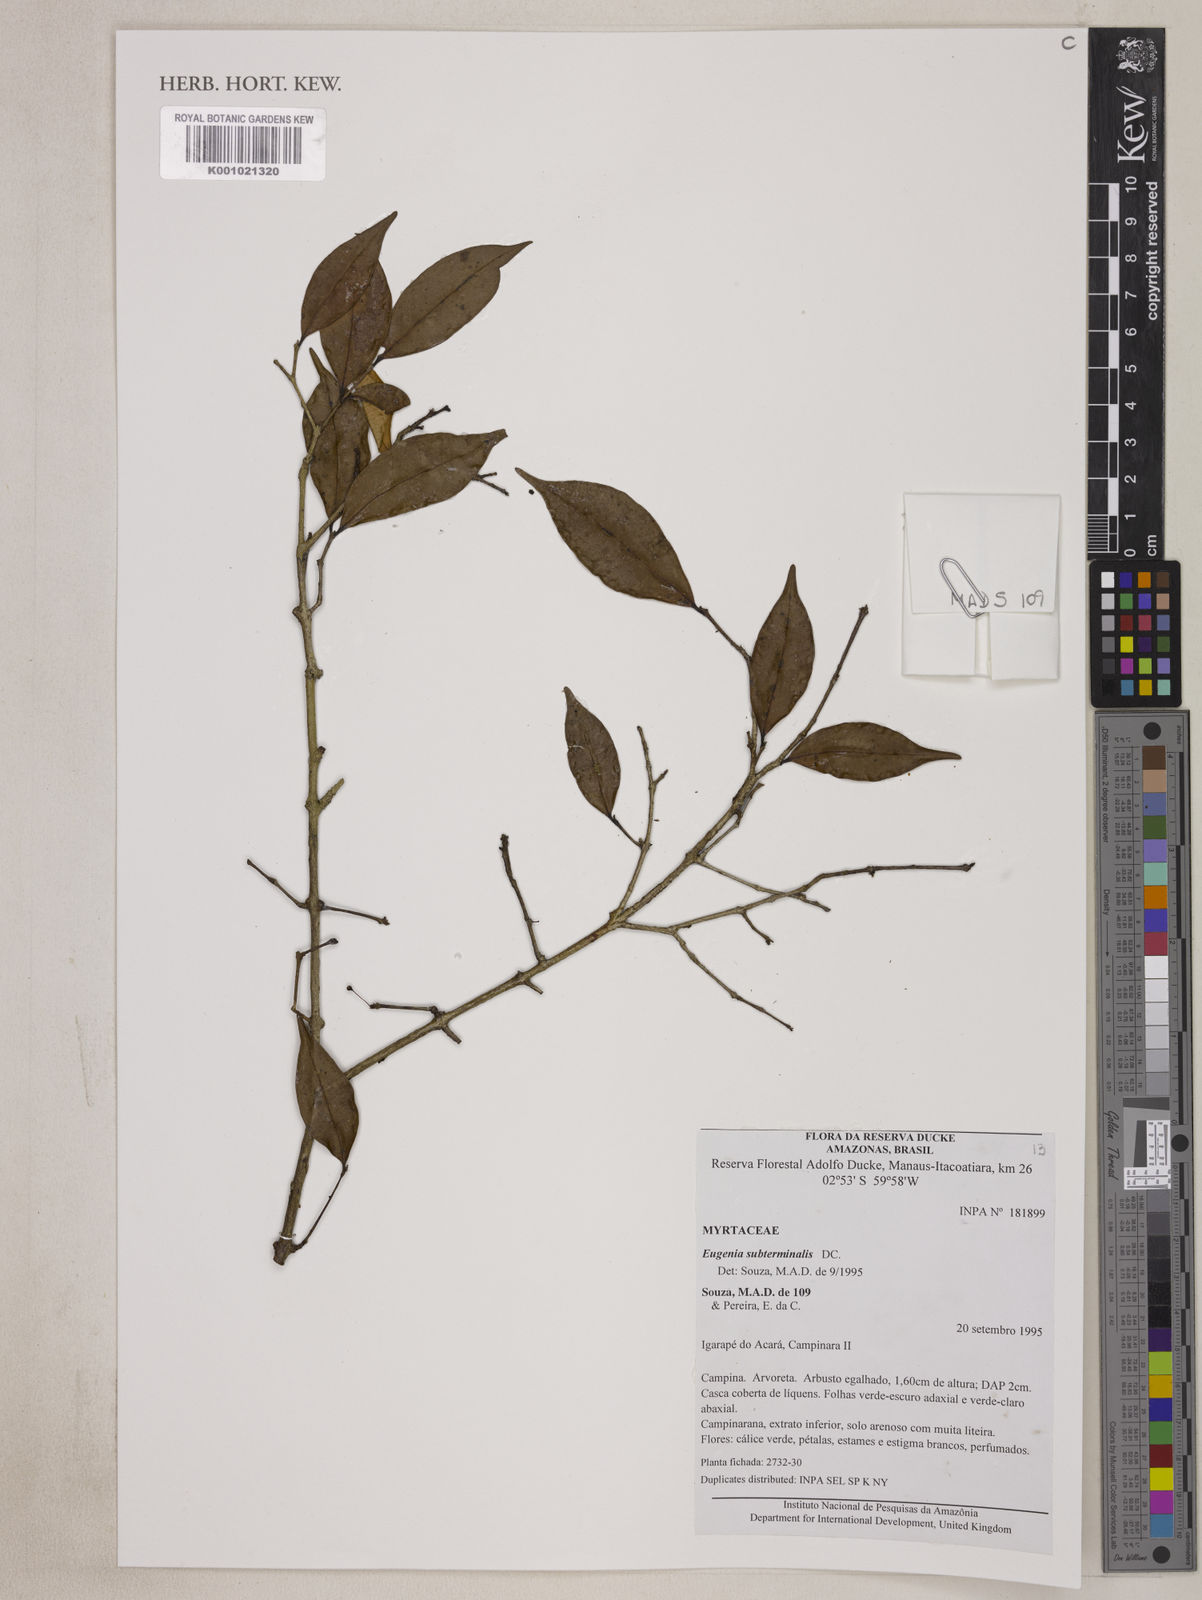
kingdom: Plantae
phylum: Tracheophyta
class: Magnoliopsida
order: Myrtales
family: Myrtaceae
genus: Eugenia
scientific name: Eugenia patrisii
